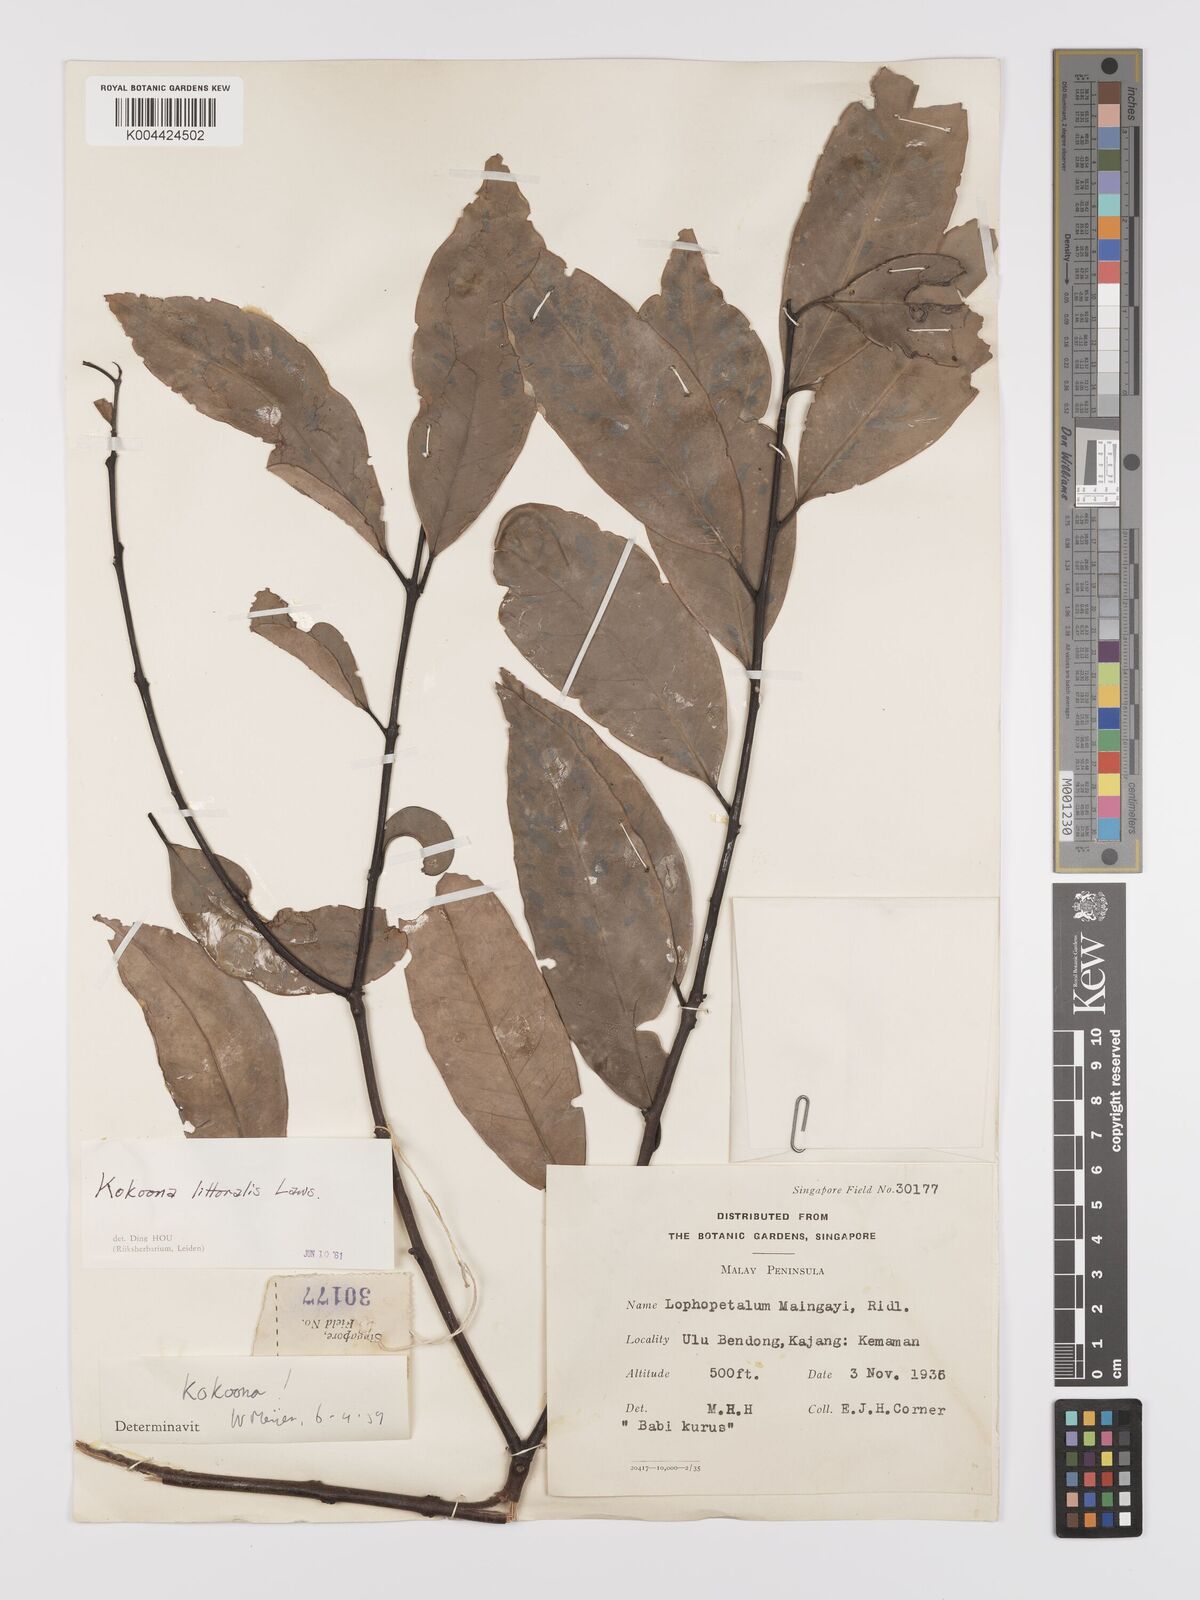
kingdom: Plantae
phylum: Tracheophyta
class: Magnoliopsida
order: Celastrales
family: Celastraceae
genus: Kokoona
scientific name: Kokoona littoralis
